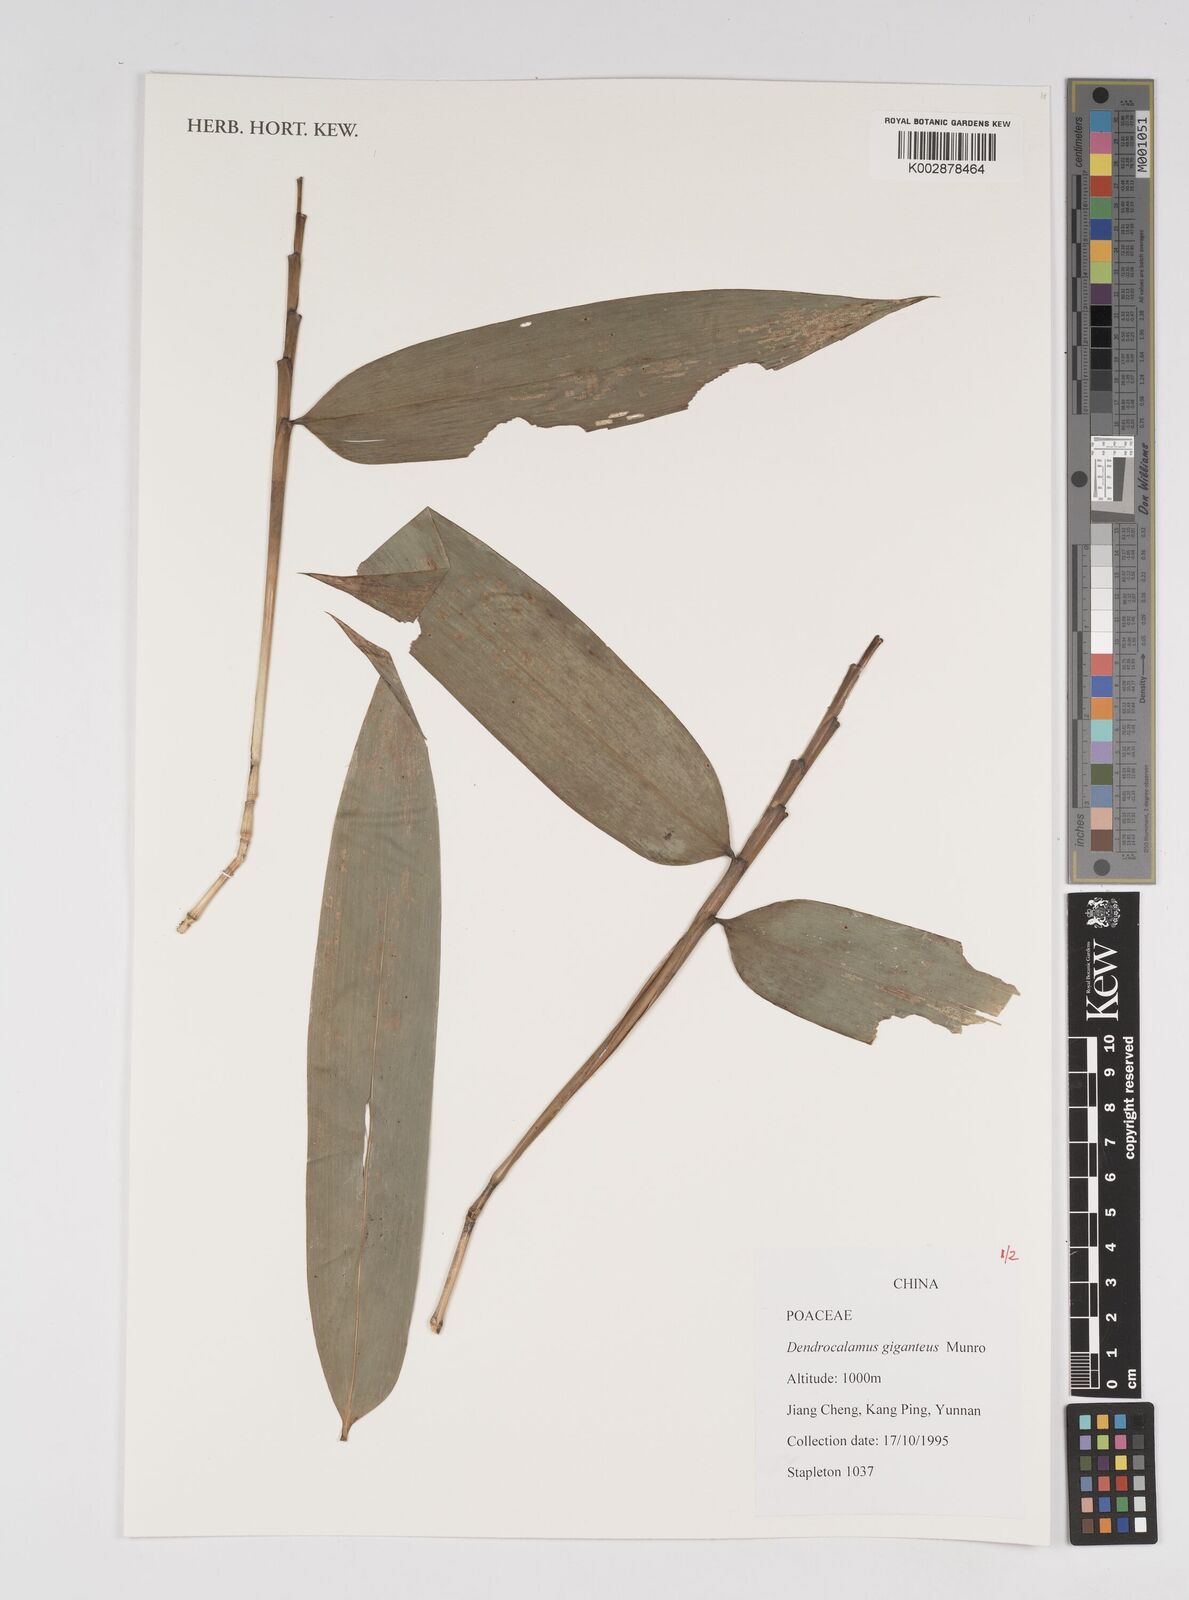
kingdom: Plantae
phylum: Tracheophyta
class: Liliopsida
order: Poales
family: Poaceae
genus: Dendrocalamus
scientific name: Dendrocalamus giganteus
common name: Giant bamboo
